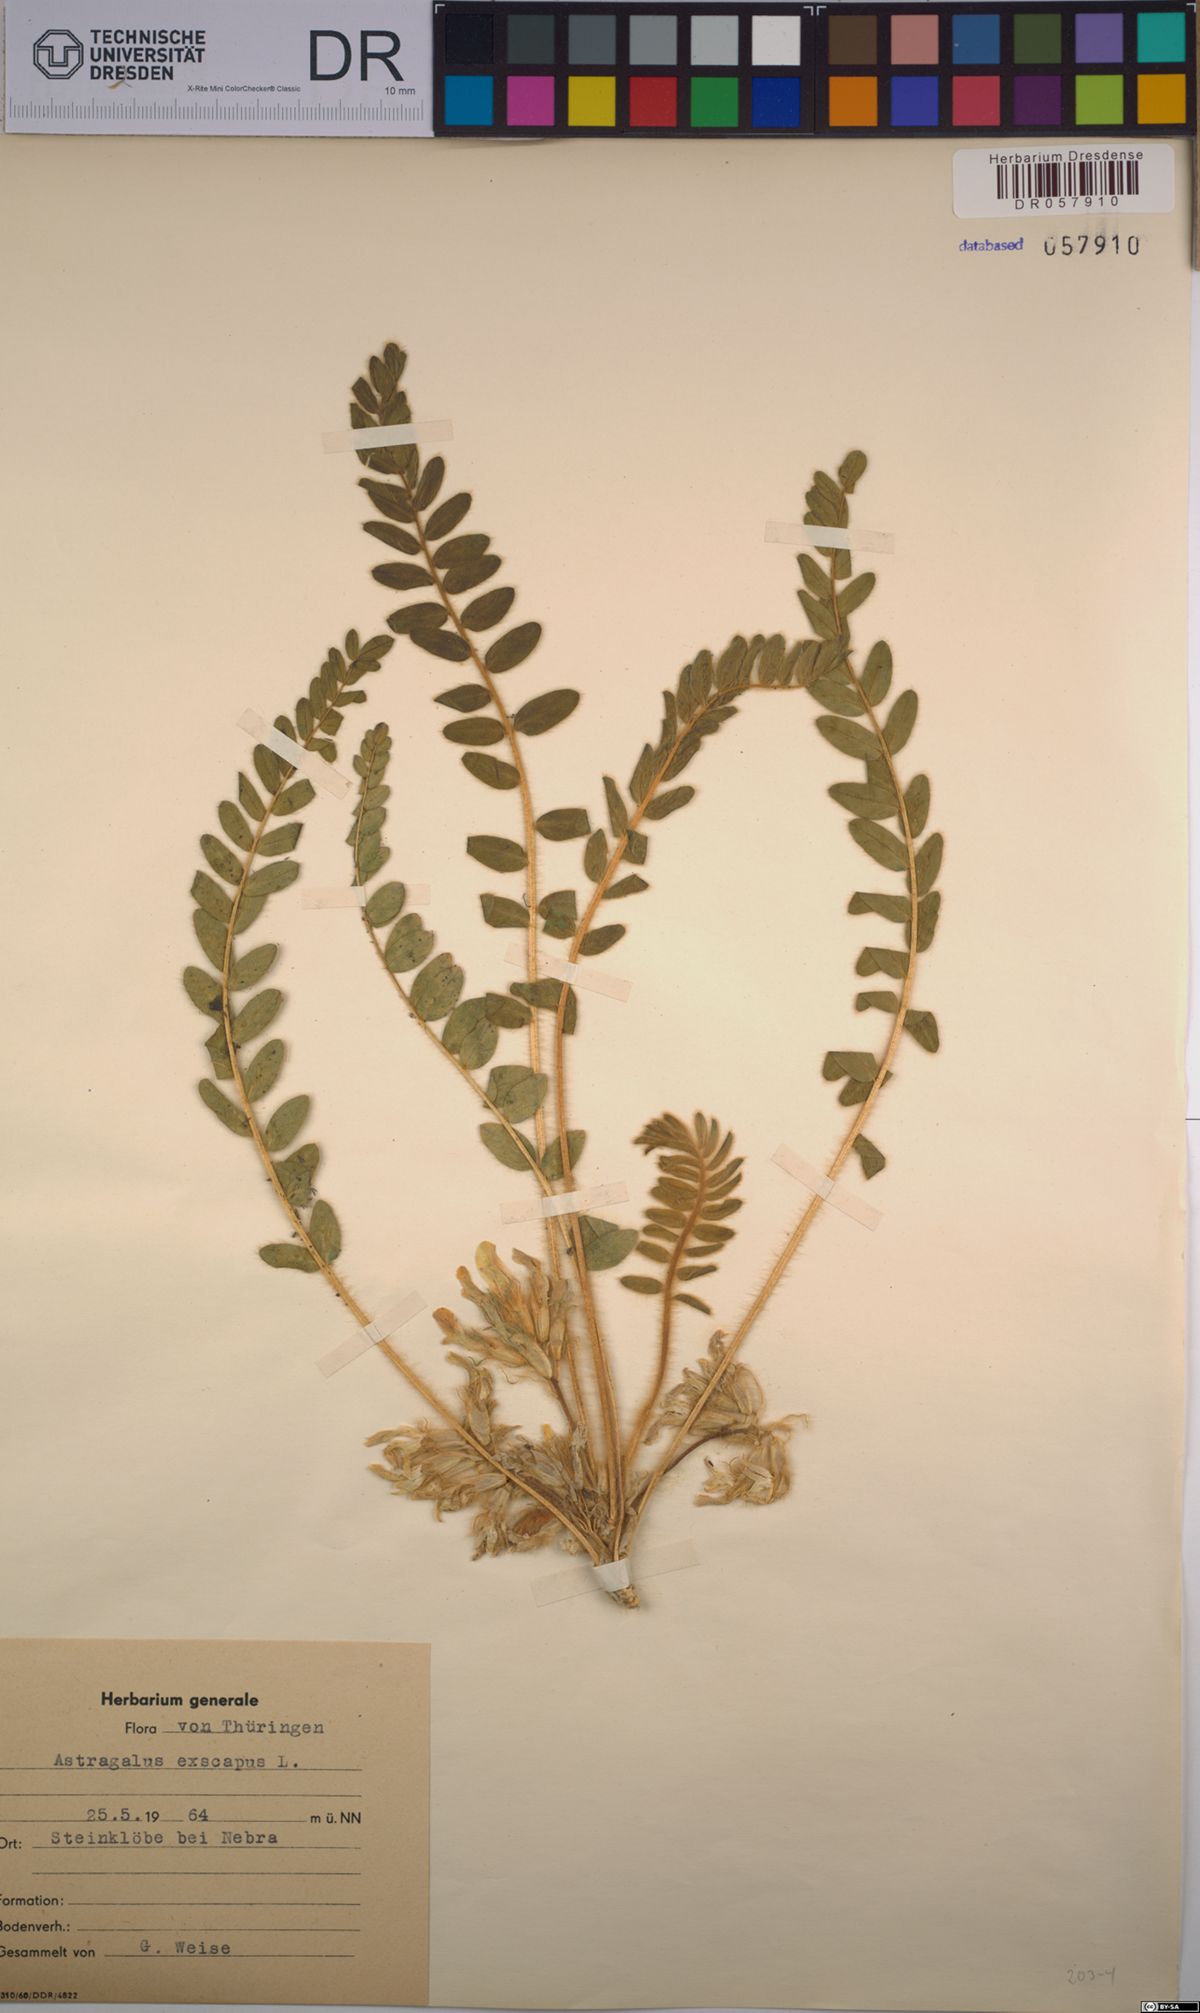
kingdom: Plantae
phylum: Tracheophyta
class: Magnoliopsida
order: Fabales
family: Fabaceae
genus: Astragalus
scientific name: Astragalus exscapus
